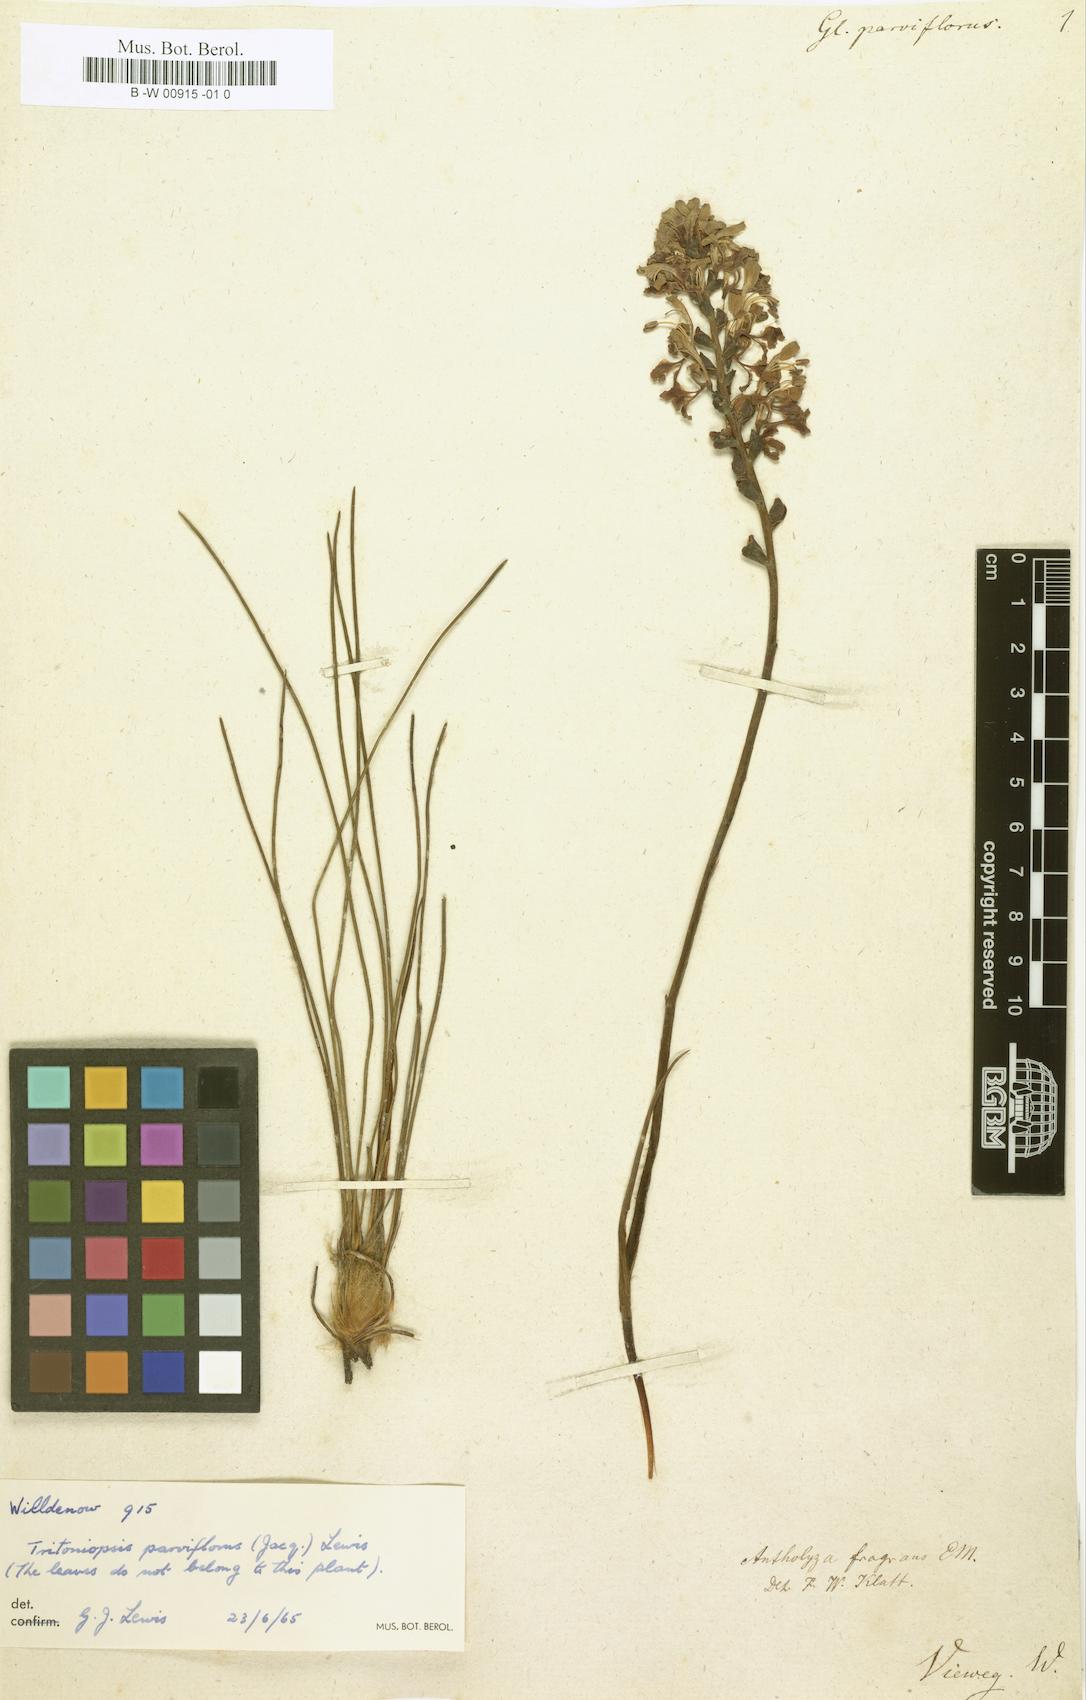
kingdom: Plantae
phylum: Tracheophyta
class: Liliopsida
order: Asparagales
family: Iridaceae
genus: Tritoniopsis
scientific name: Tritoniopsis parviflora
